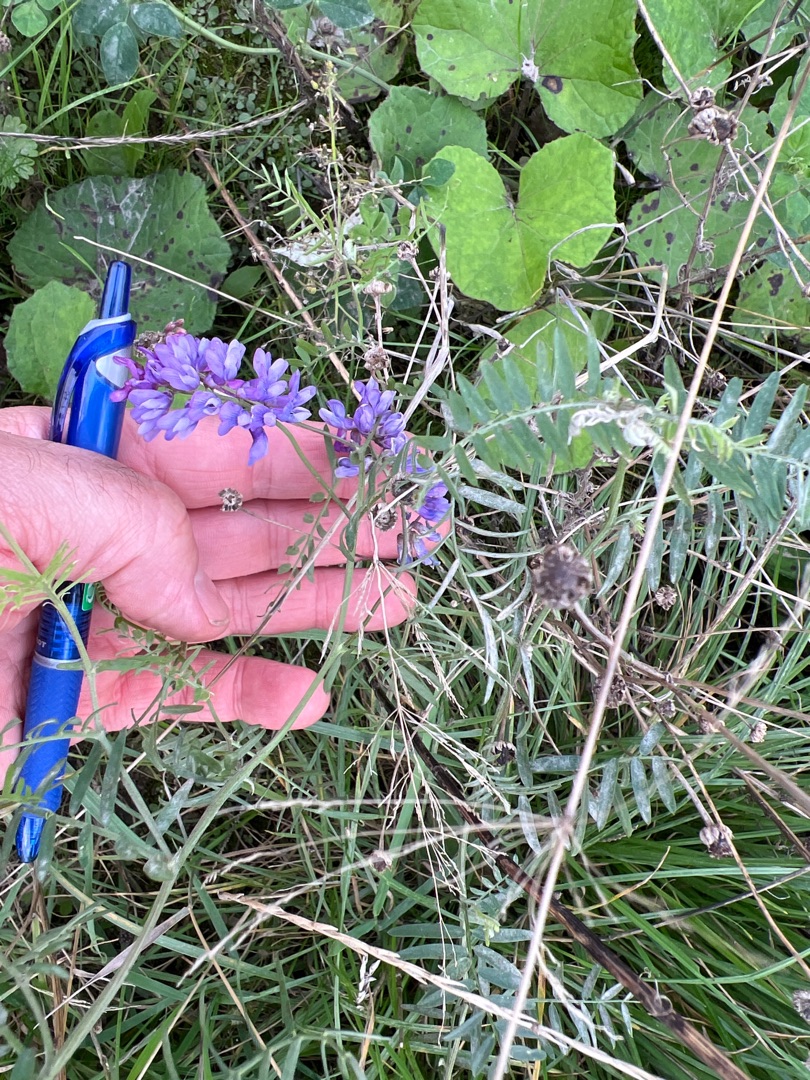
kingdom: Plantae
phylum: Tracheophyta
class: Magnoliopsida
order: Fabales
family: Fabaceae
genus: Vicia
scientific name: Vicia cracca
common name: Muse-vikke
